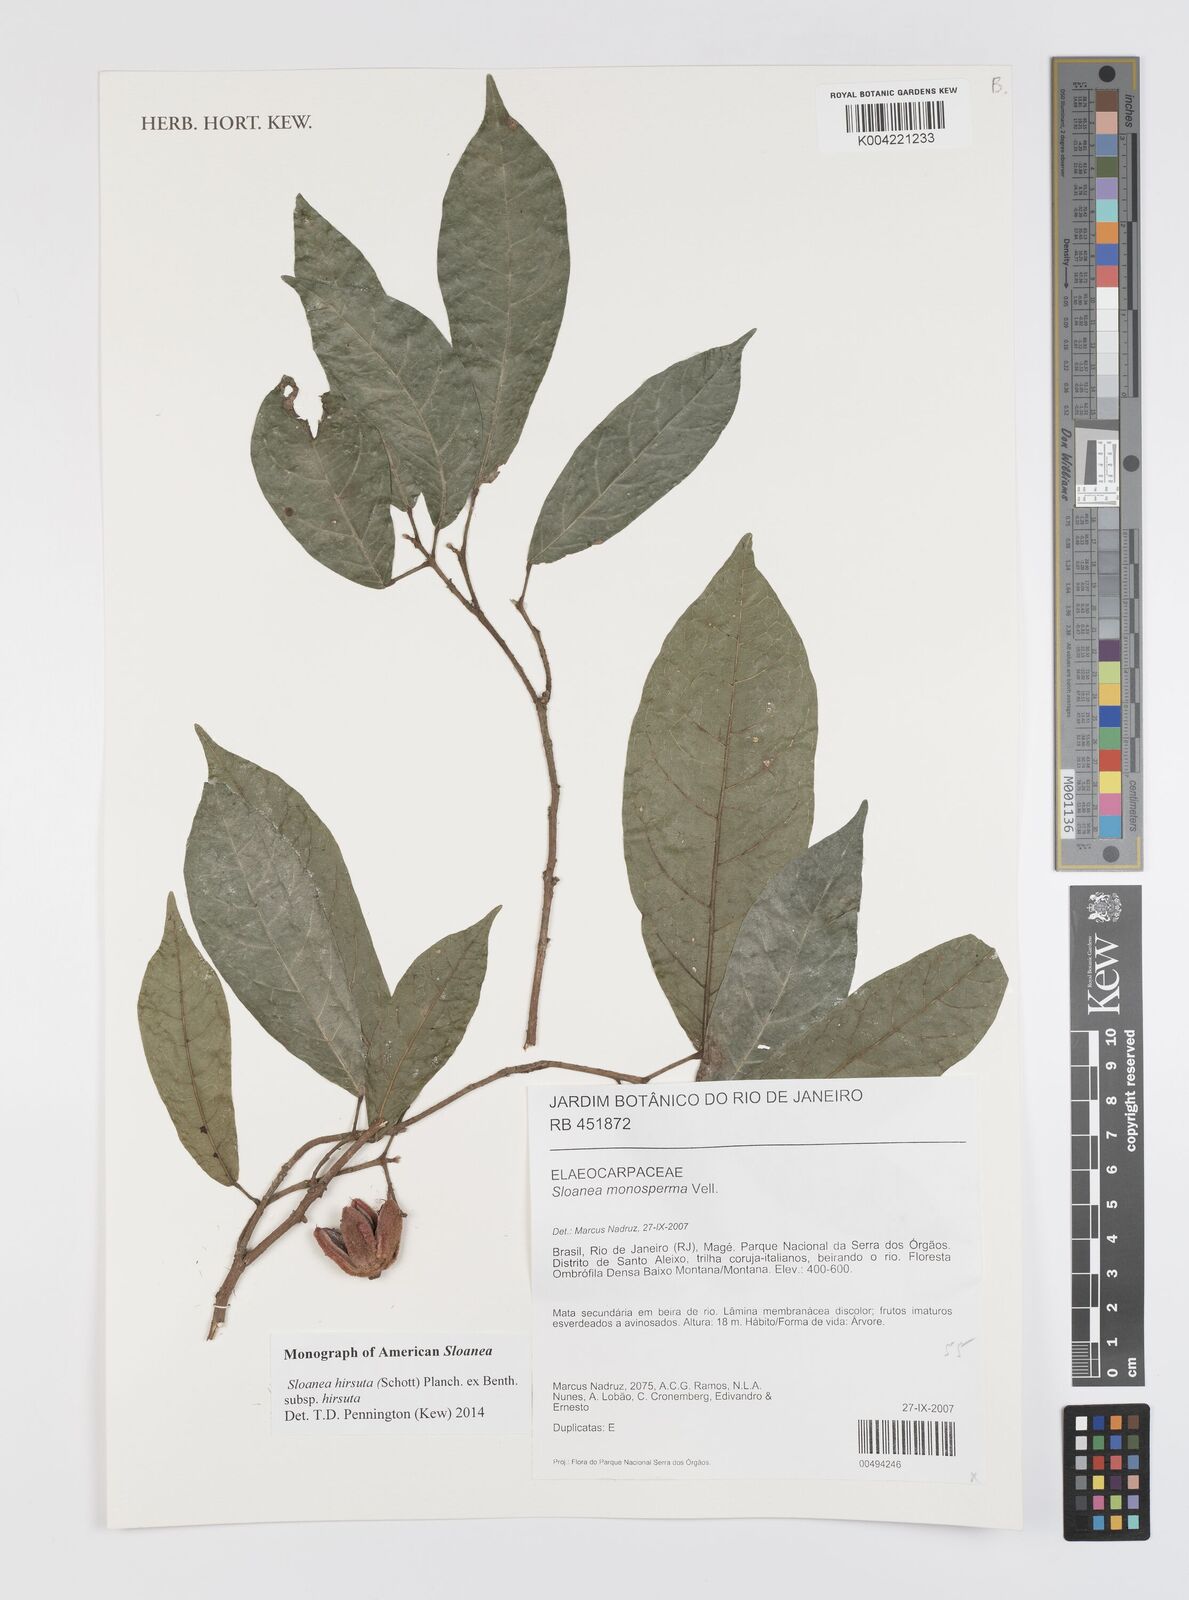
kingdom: Plantae
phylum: Tracheophyta
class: Magnoliopsida
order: Oxalidales
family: Elaeocarpaceae
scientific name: Elaeocarpaceae
